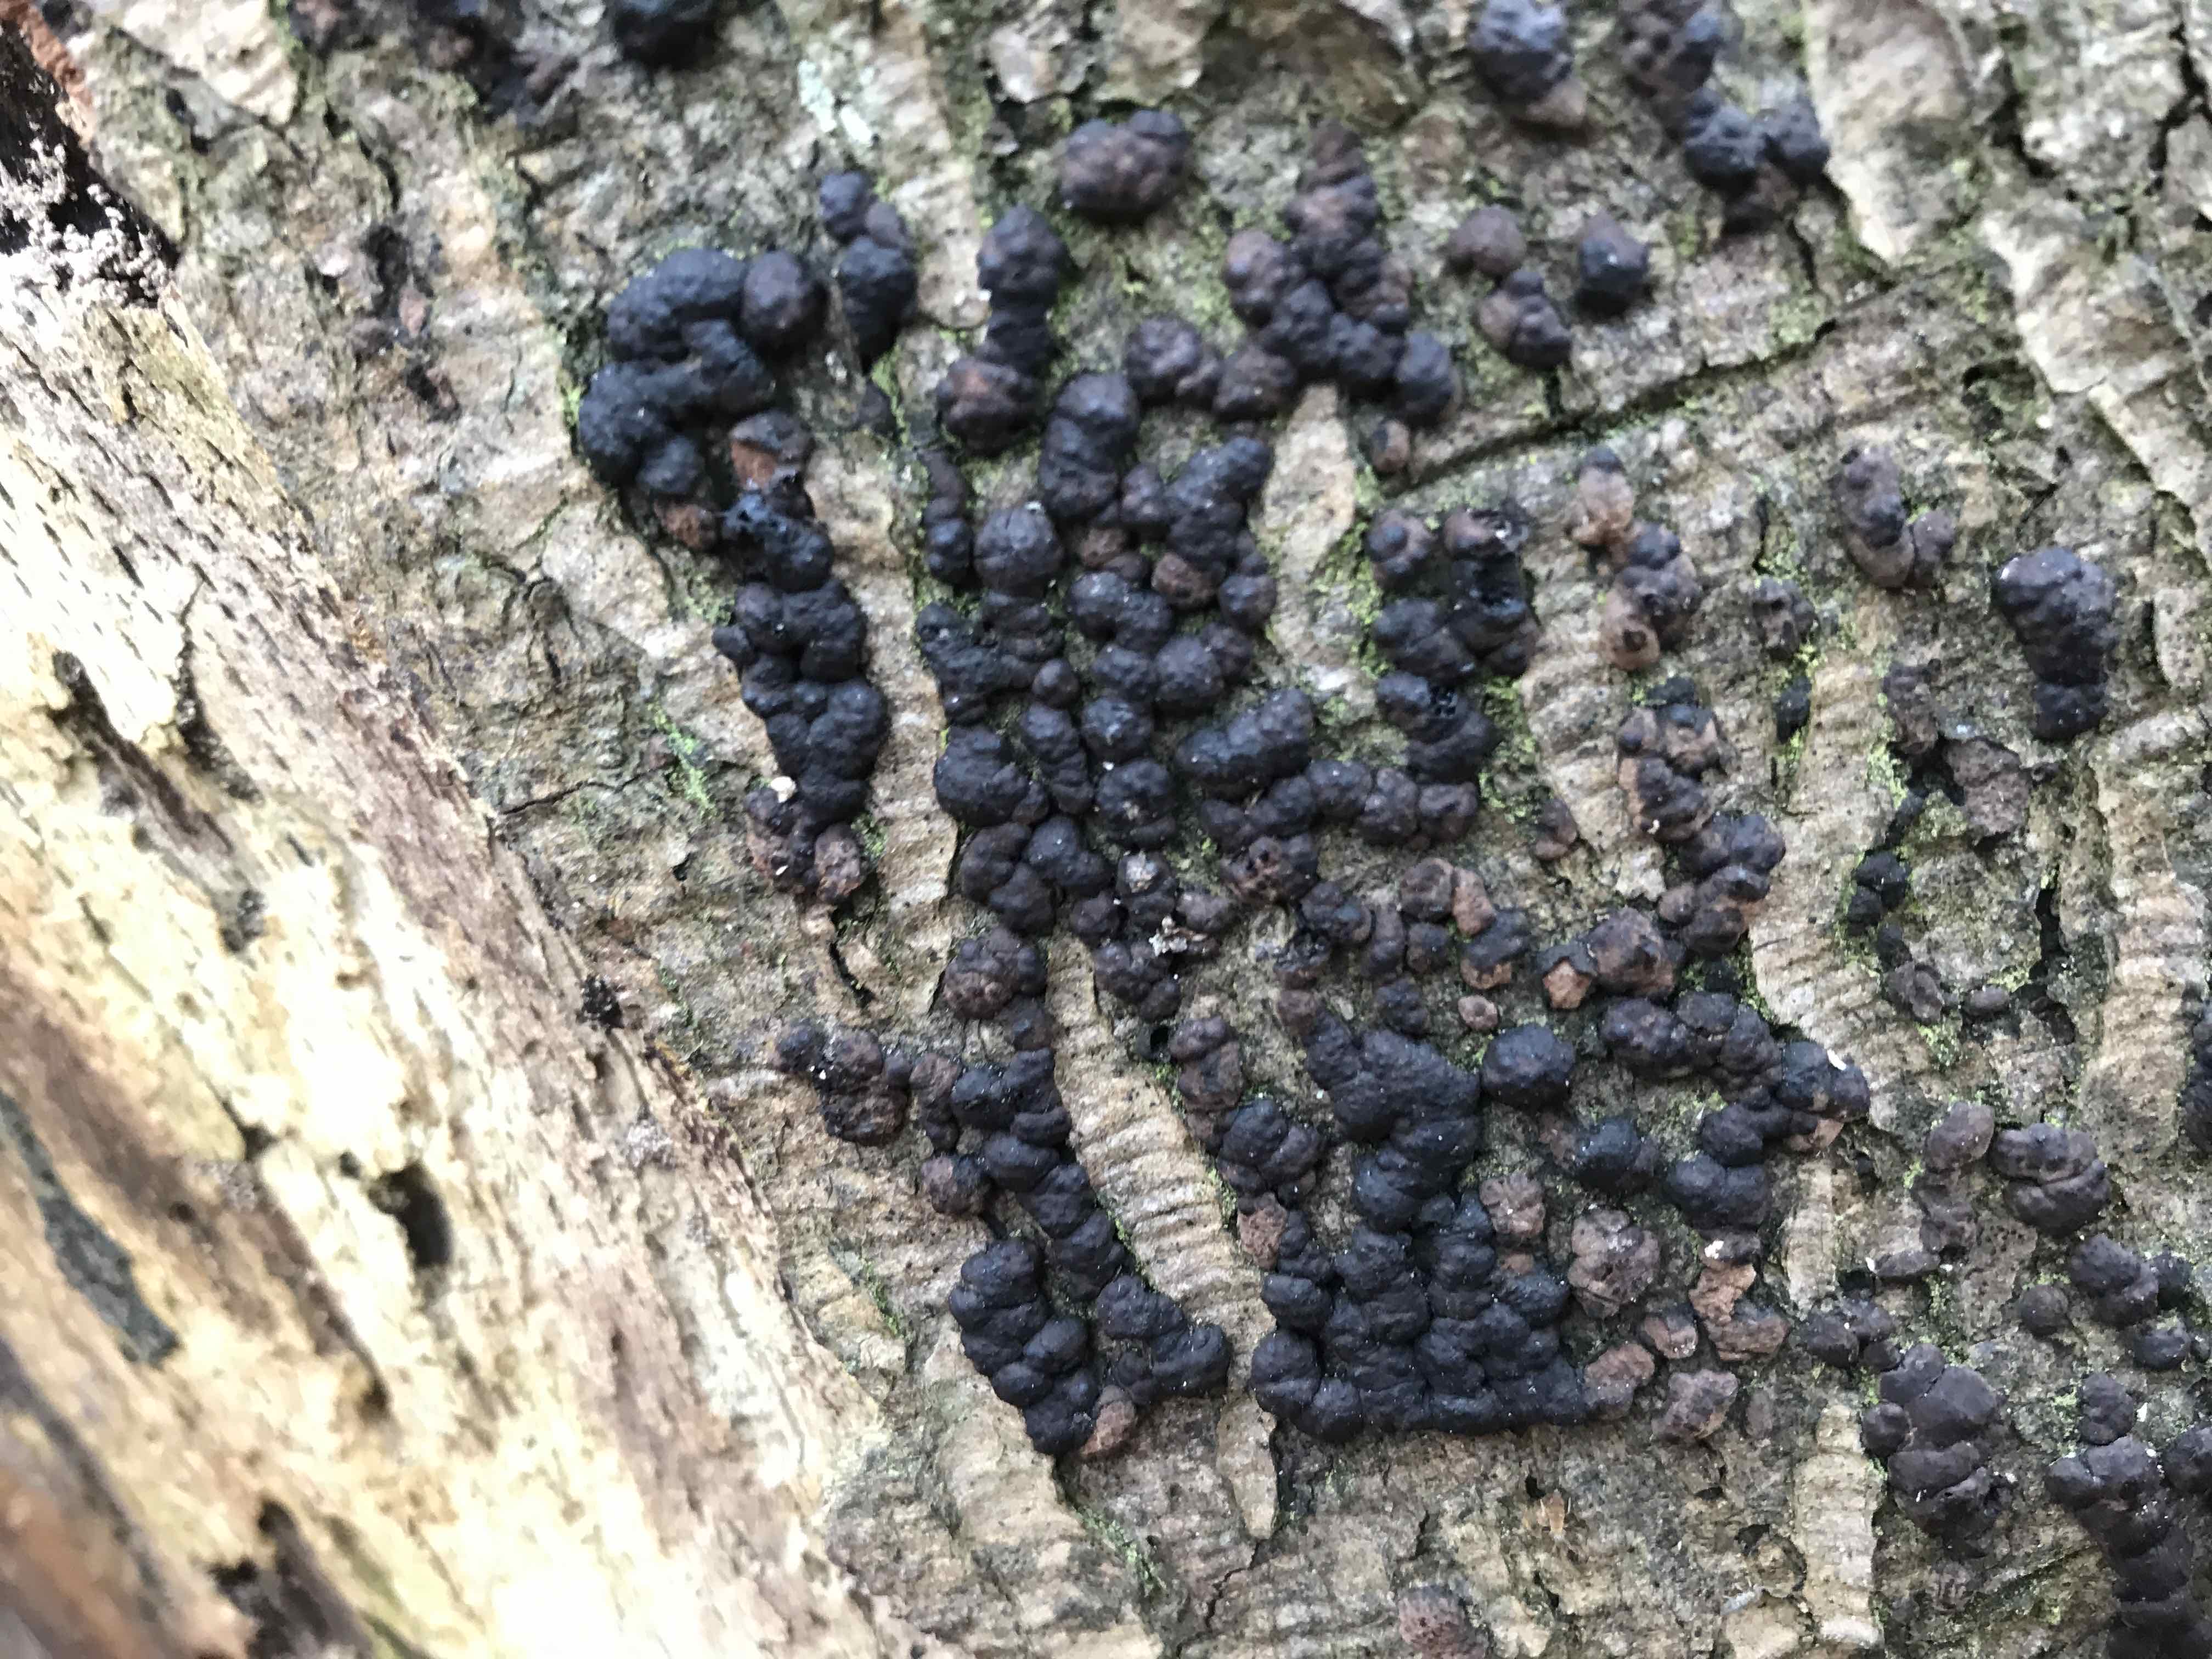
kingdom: Fungi
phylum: Ascomycota
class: Sordariomycetes
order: Xylariales
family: Hypoxylaceae
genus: Jackrogersella
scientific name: Jackrogersella cohaerens
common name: sammenflydende kulbær
